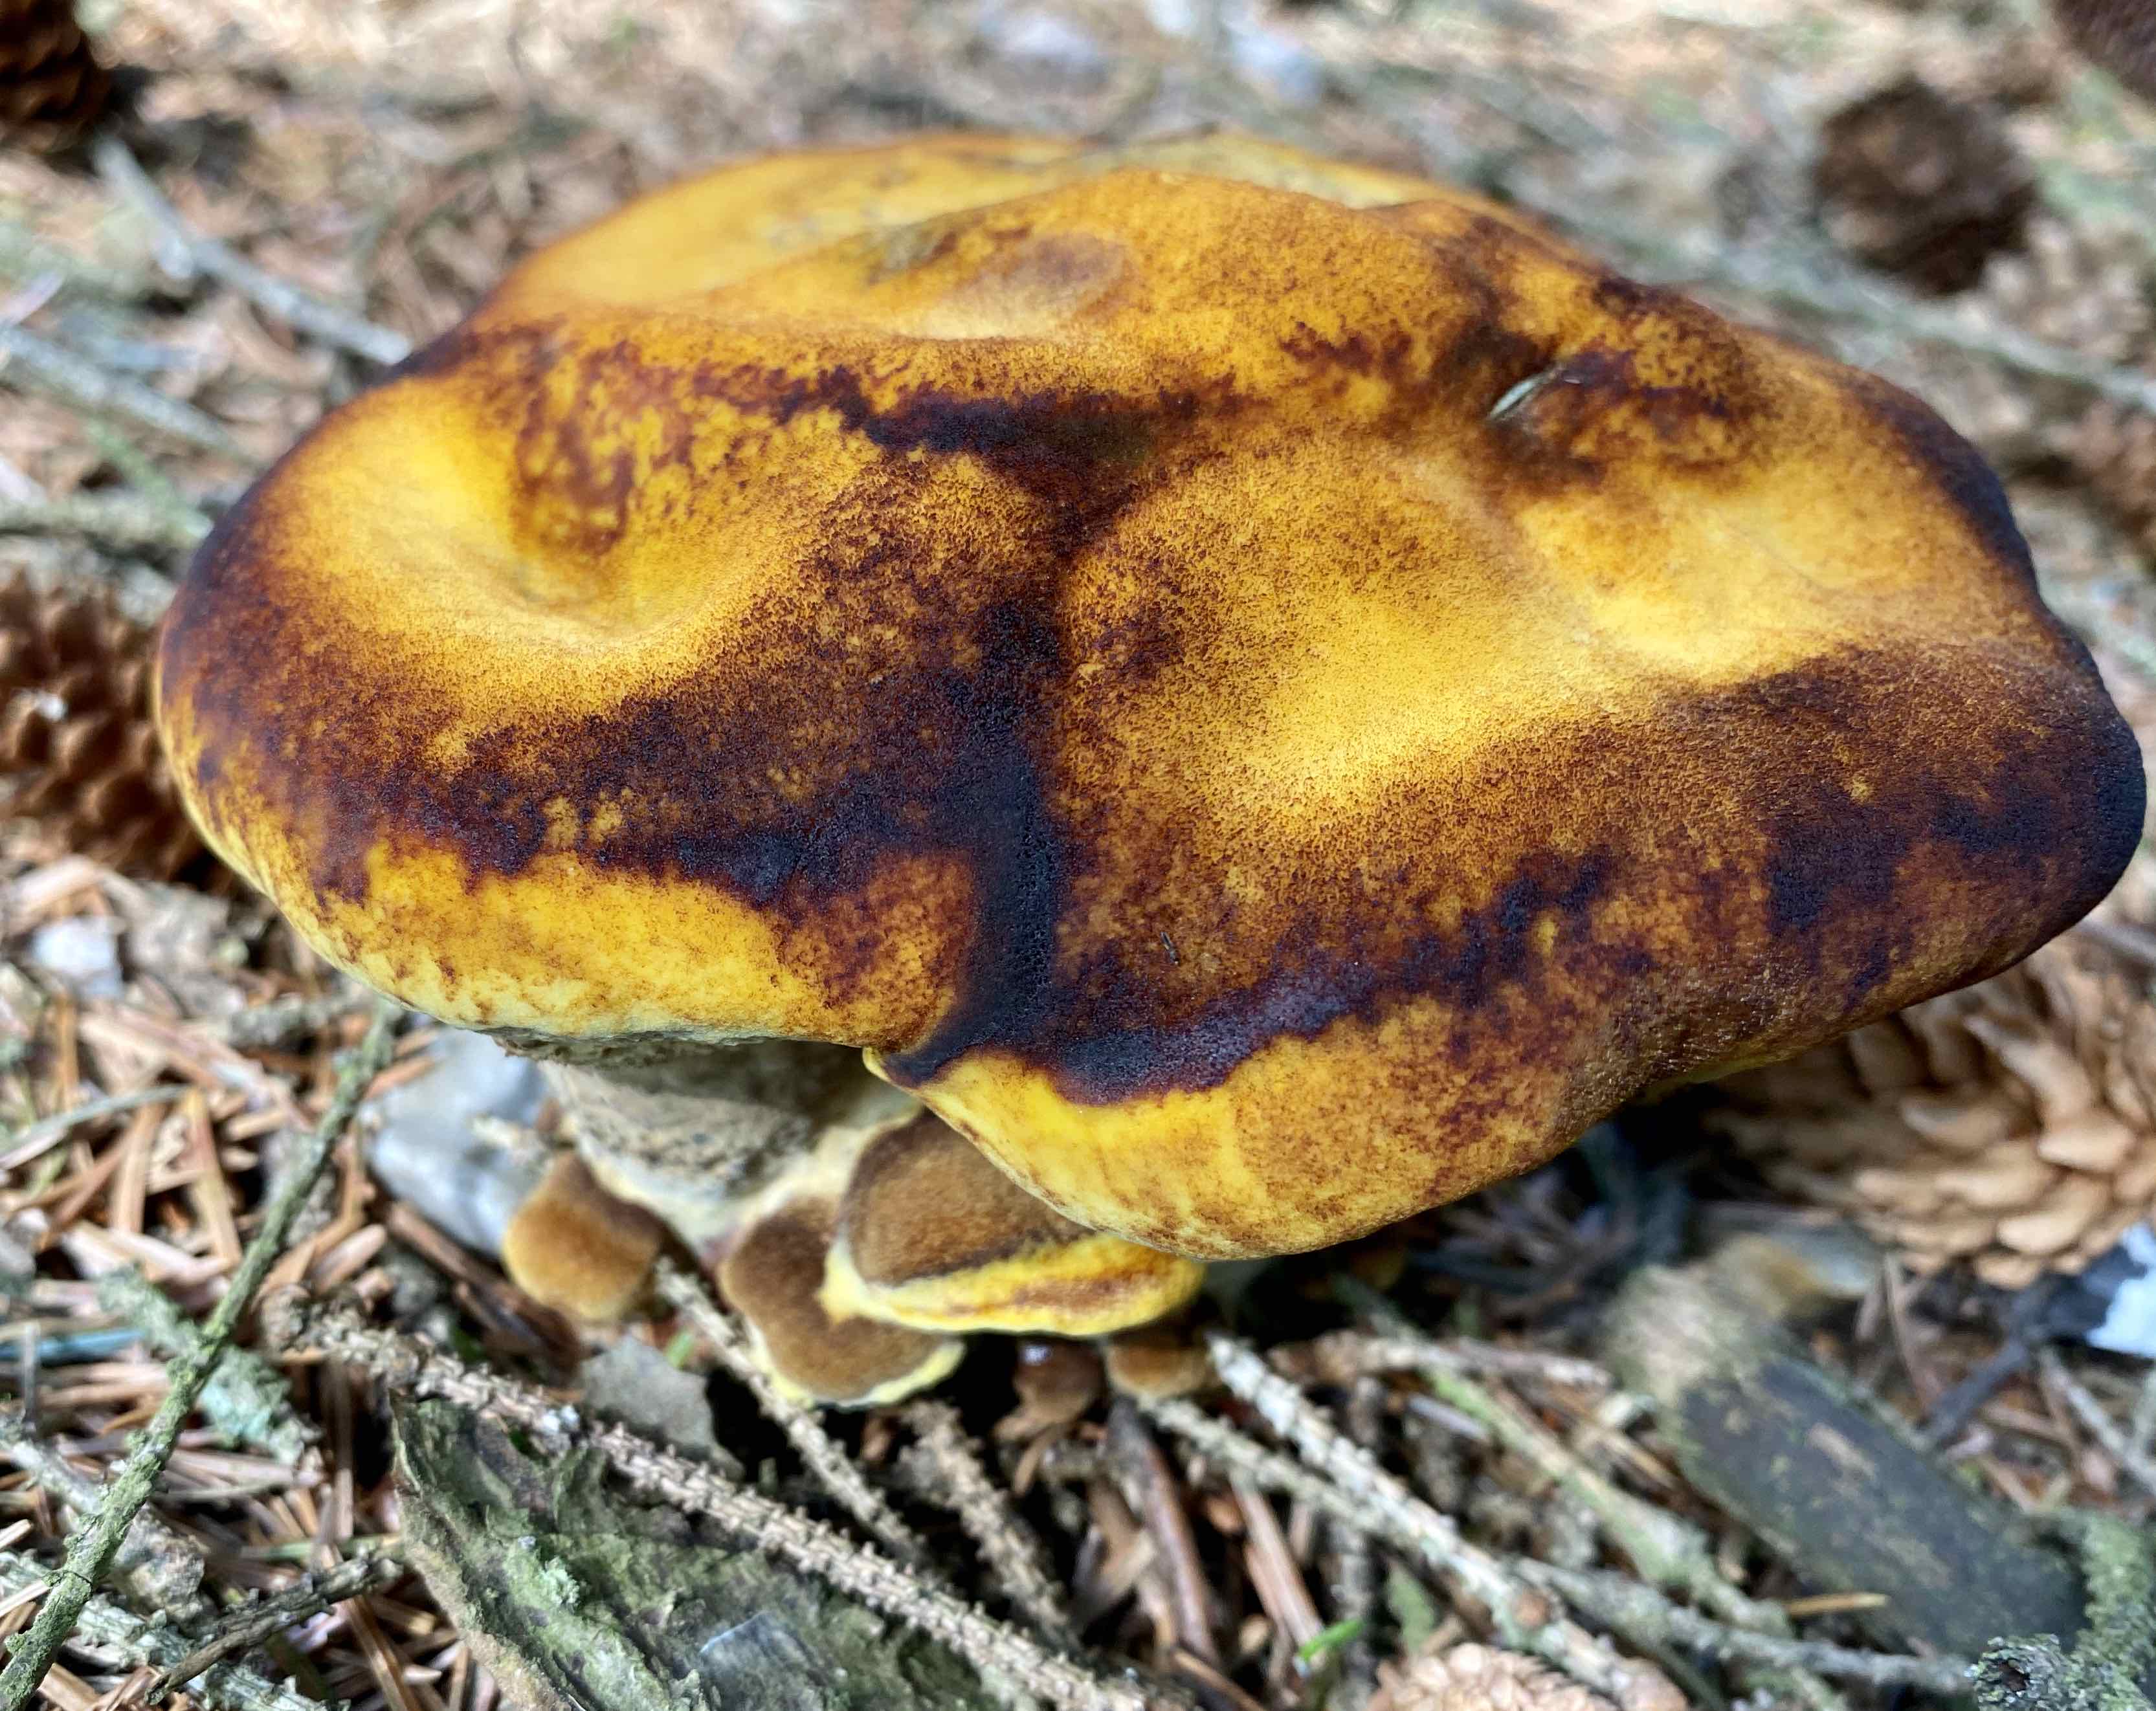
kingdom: Fungi
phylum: Basidiomycota
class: Agaricomycetes
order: Polyporales
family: Laetiporaceae
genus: Phaeolus
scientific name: Phaeolus schweinitzii
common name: brunporesvamp
